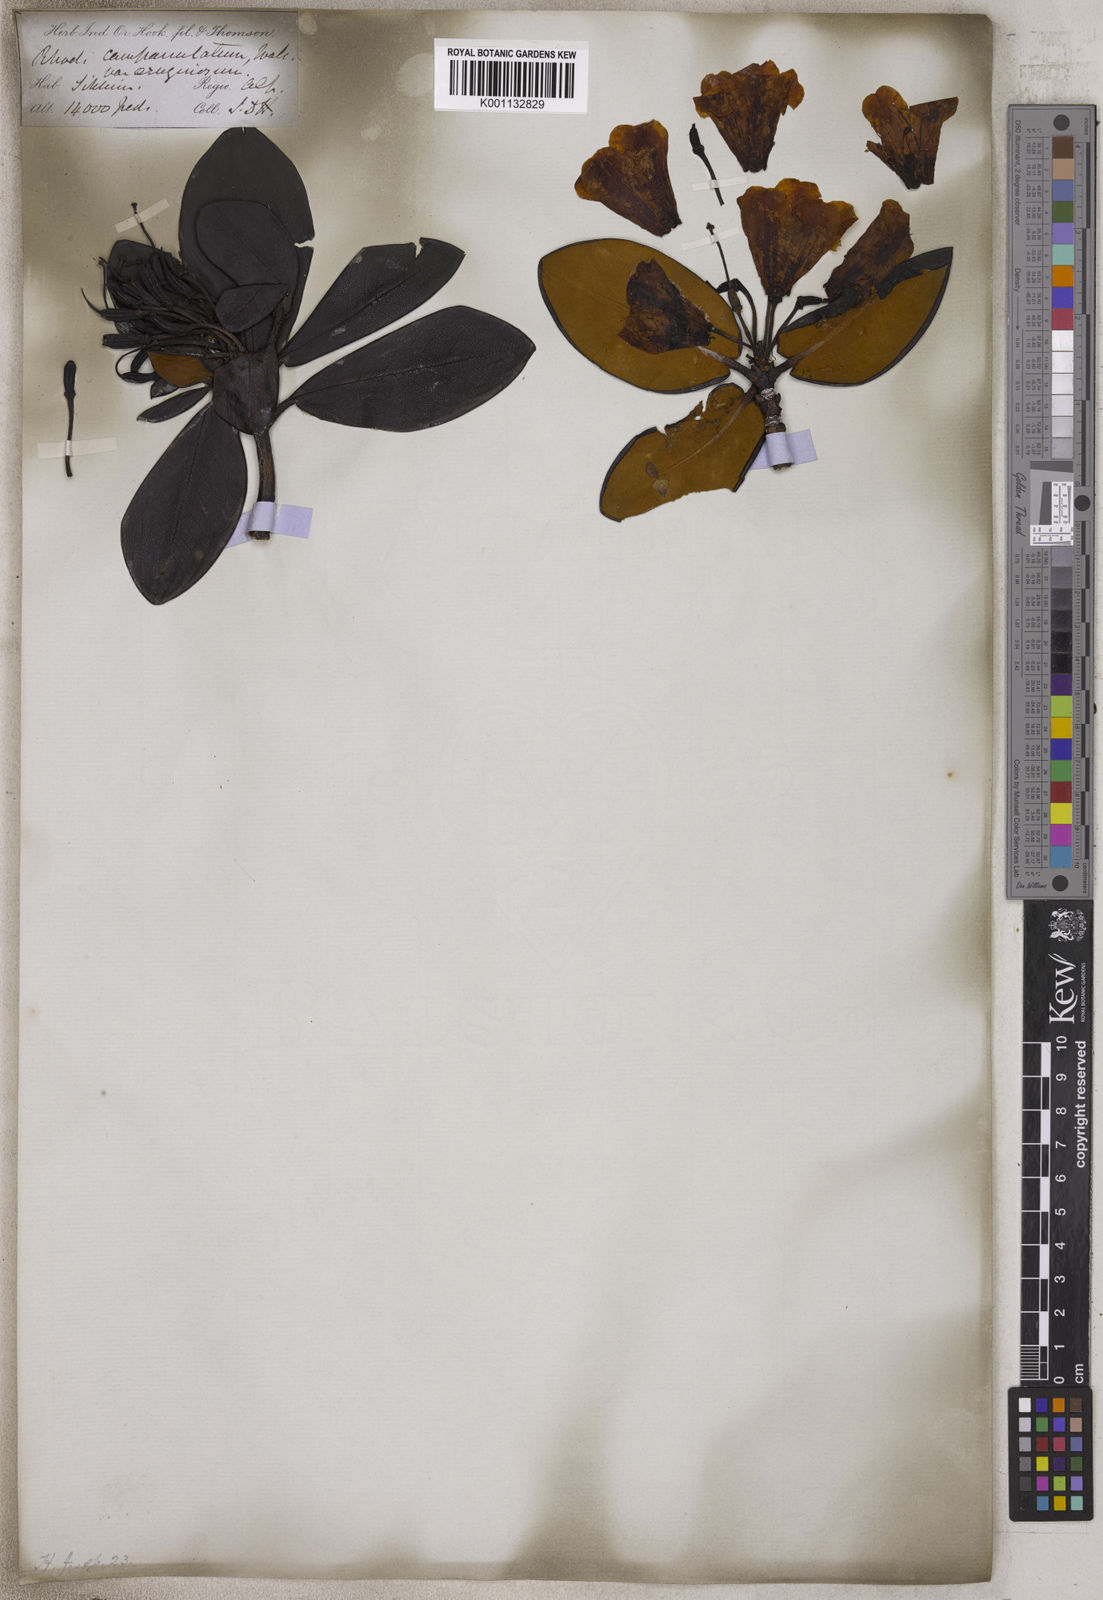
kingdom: Plantae
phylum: Tracheophyta
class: Magnoliopsida
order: Ericales
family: Ericaceae
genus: Rhododendron
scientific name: Rhododendron campanulatum
